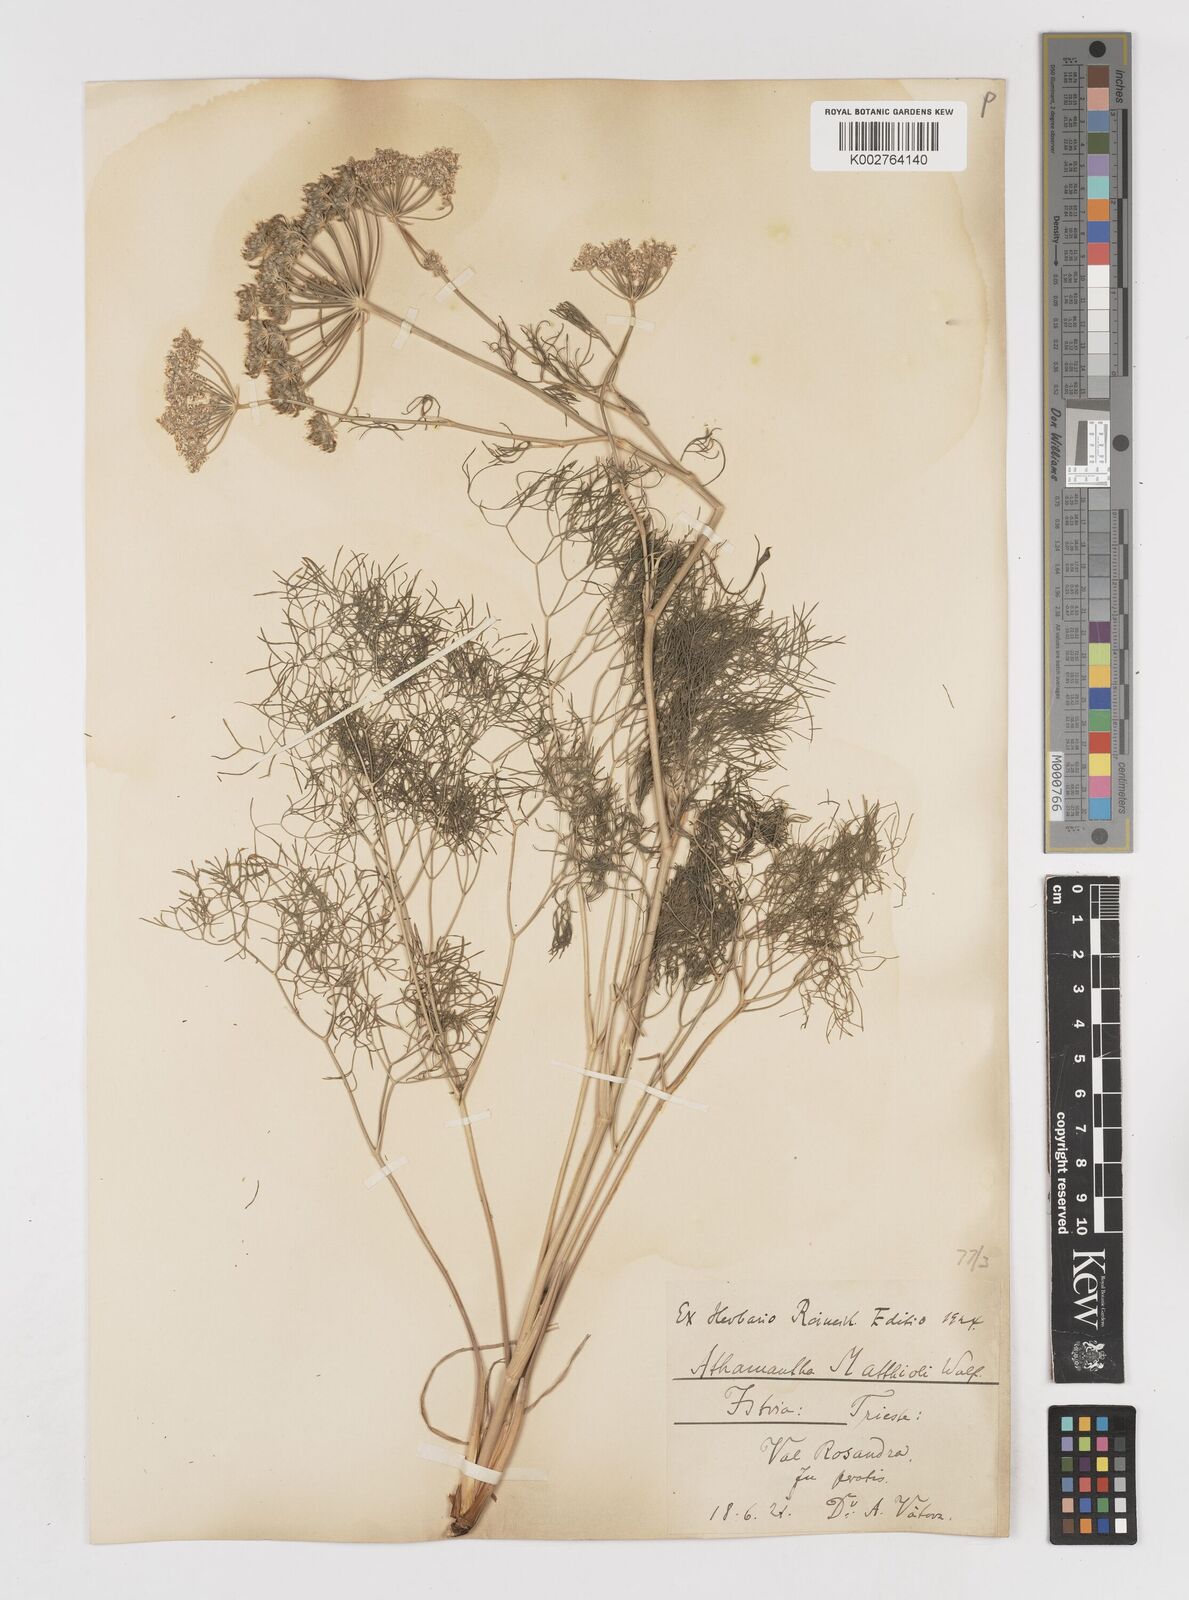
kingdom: Plantae
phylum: Tracheophyta
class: Magnoliopsida
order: Apiales
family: Apiaceae
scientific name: Apiaceae
